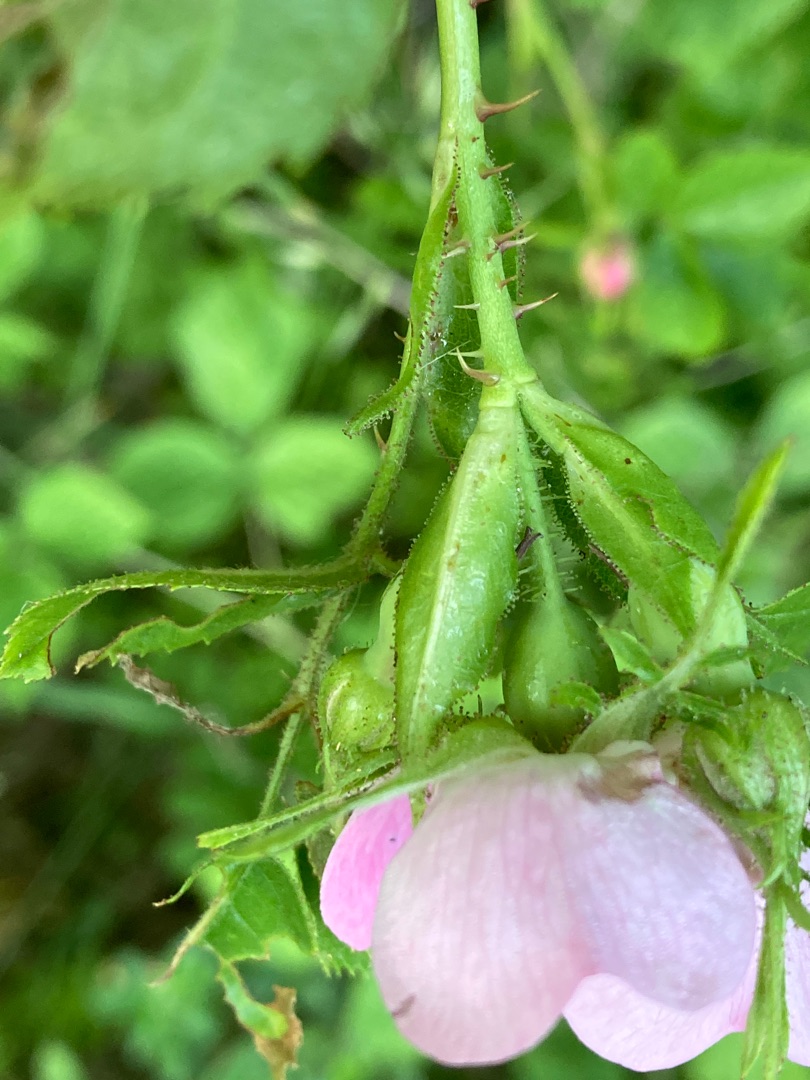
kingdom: Plantae
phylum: Tracheophyta
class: Magnoliopsida
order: Rosales
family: Rosaceae
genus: Rosa
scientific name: Rosa rubiginosa
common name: Æble-rose
